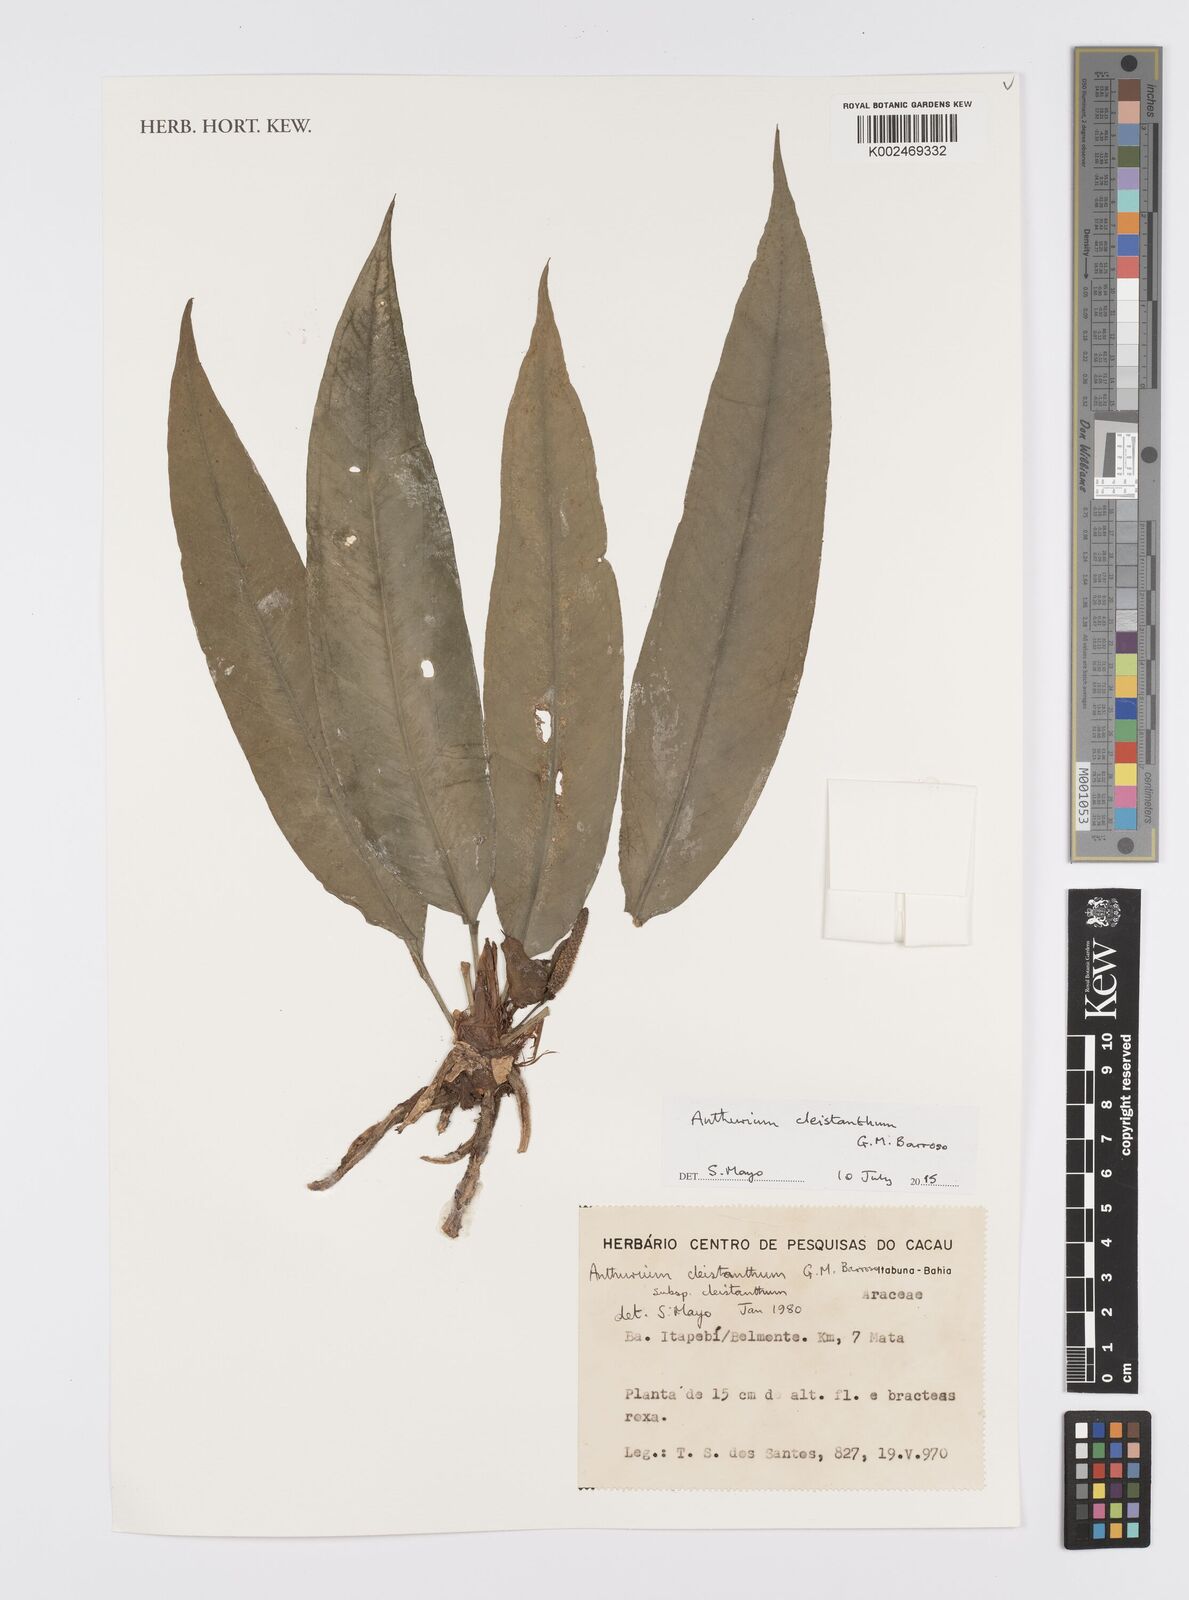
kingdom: Plantae
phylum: Tracheophyta
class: Liliopsida
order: Alismatales
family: Araceae
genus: Anthurium
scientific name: Anthurium cleistanthum
